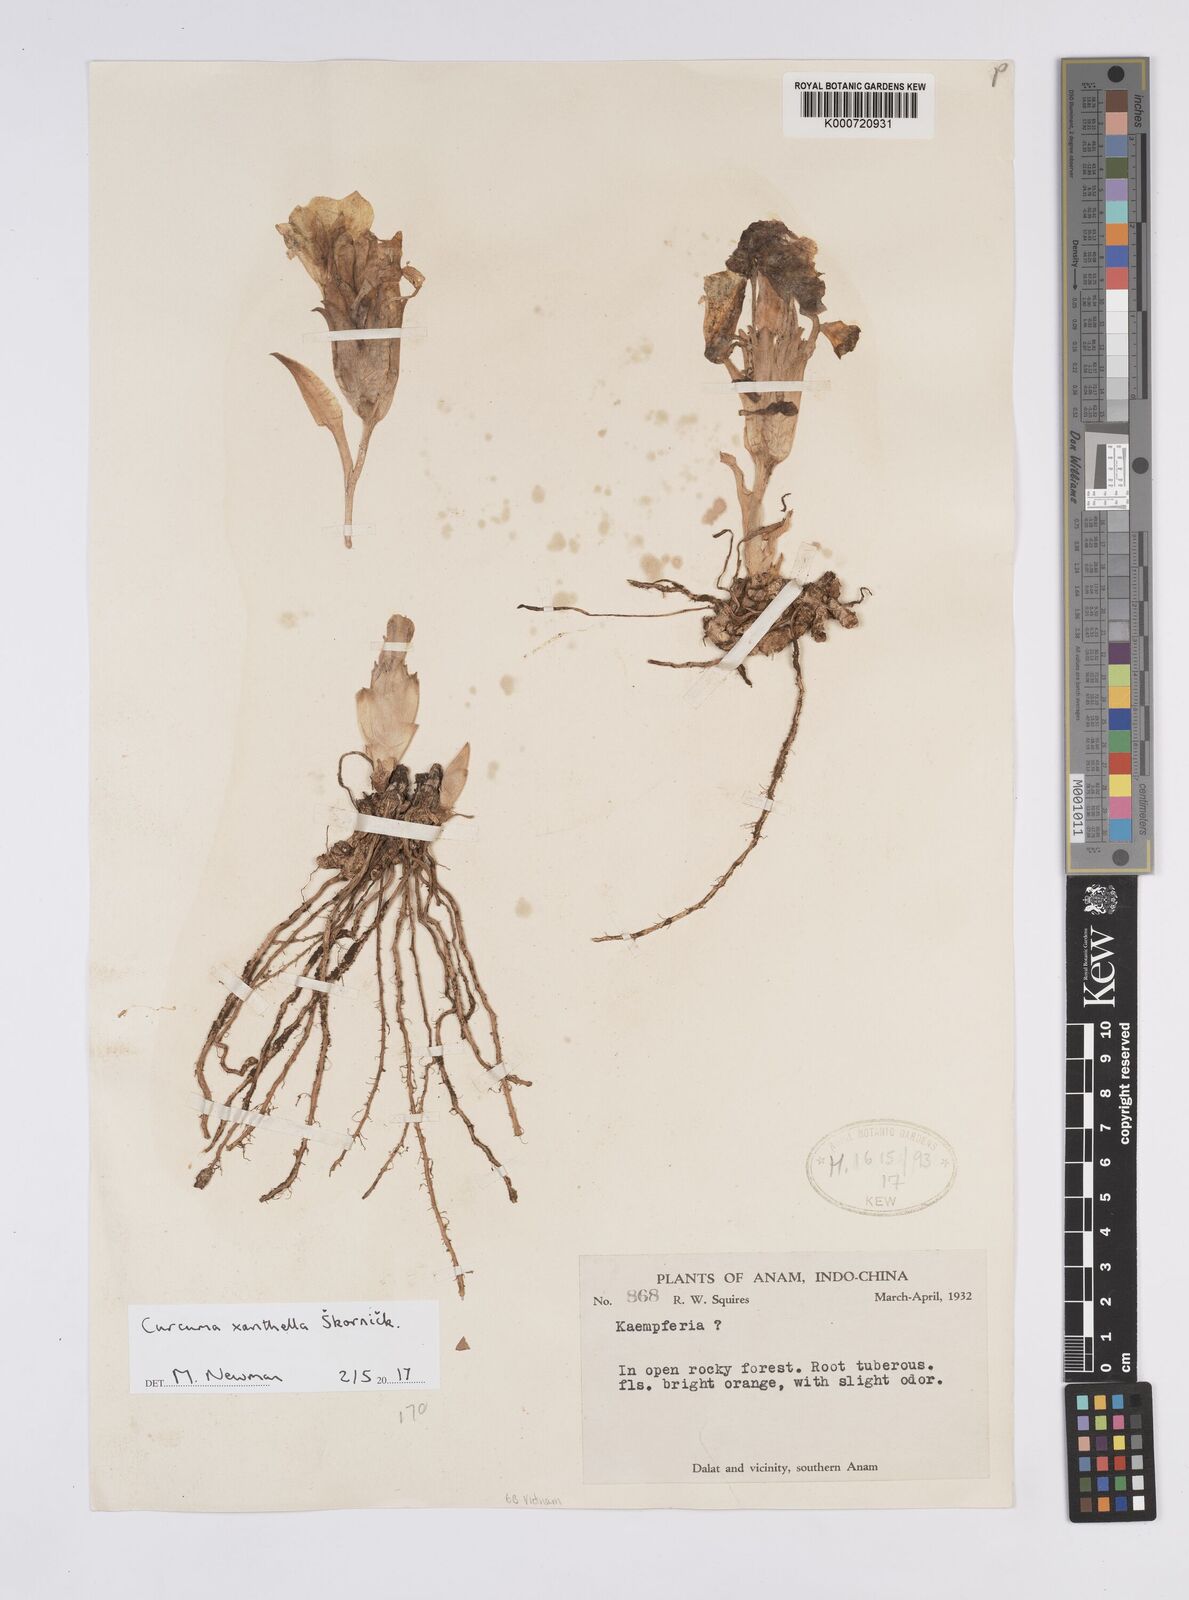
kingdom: Plantae
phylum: Tracheophyta
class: Liliopsida
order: Zingiberales
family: Zingiberaceae
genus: Curcuma
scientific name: Curcuma
